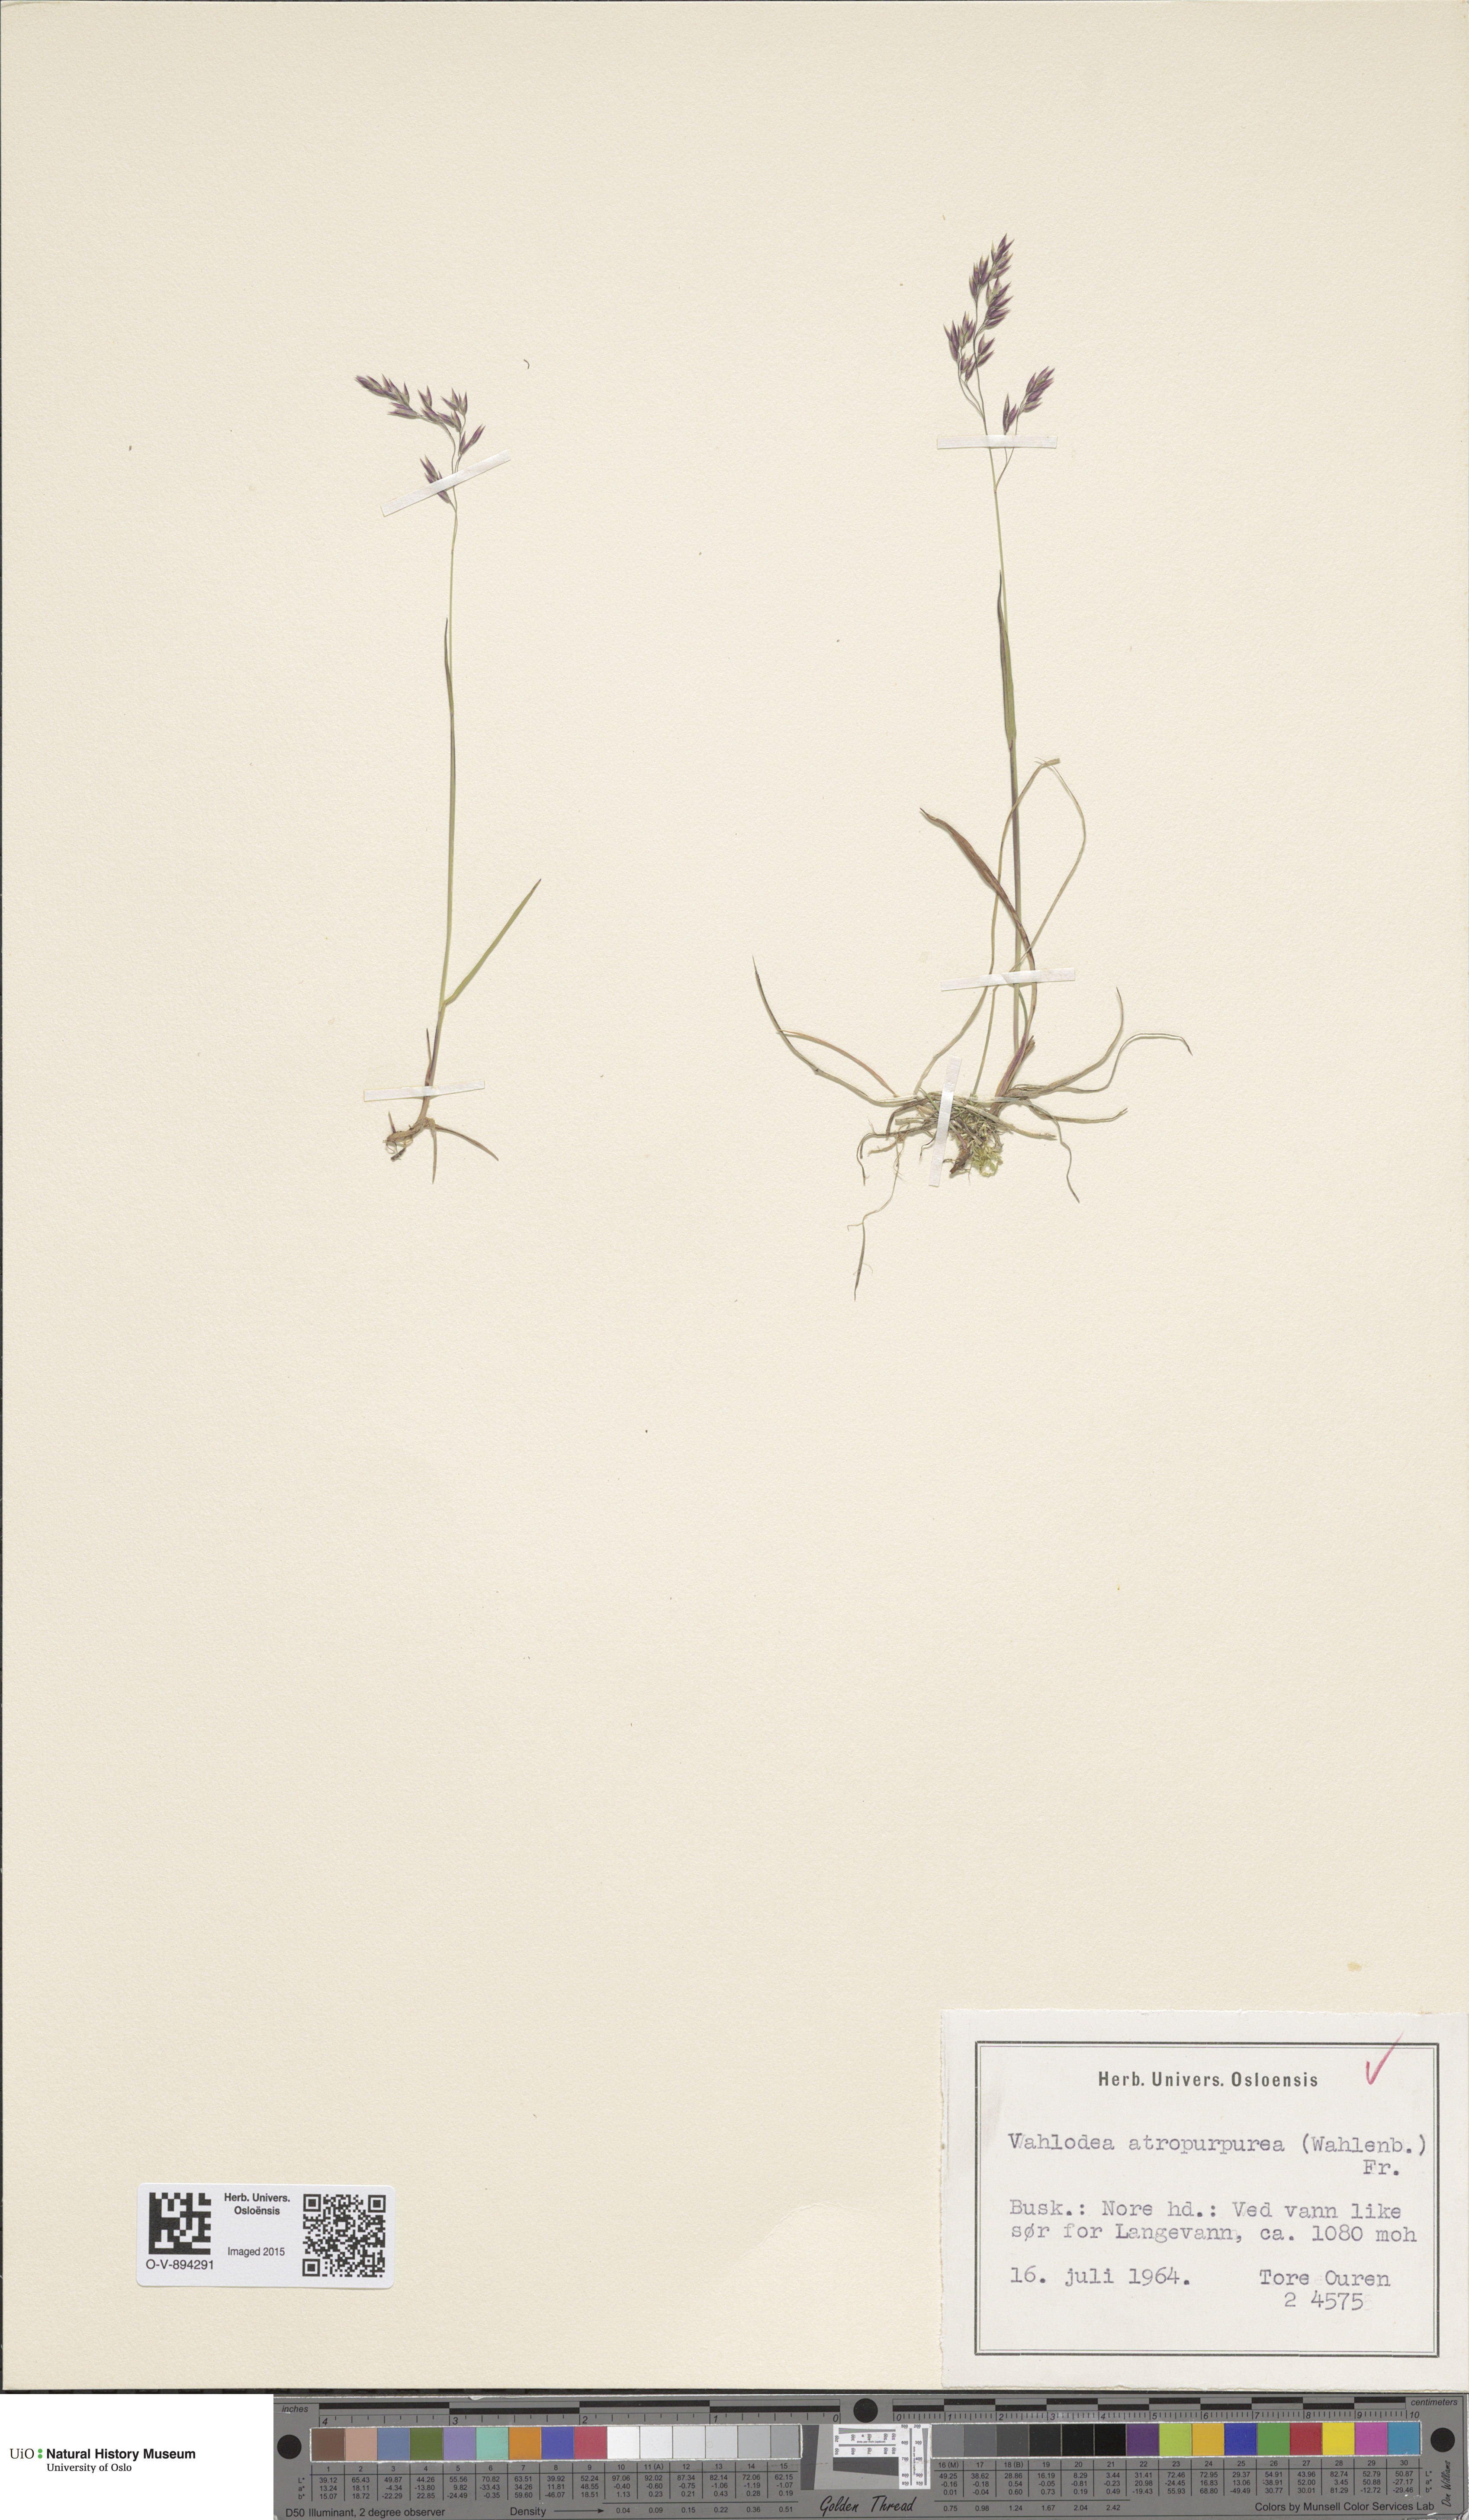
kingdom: Plantae
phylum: Tracheophyta
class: Liliopsida
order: Poales
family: Poaceae
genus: Vahlodea
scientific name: Vahlodea atropurpurea
